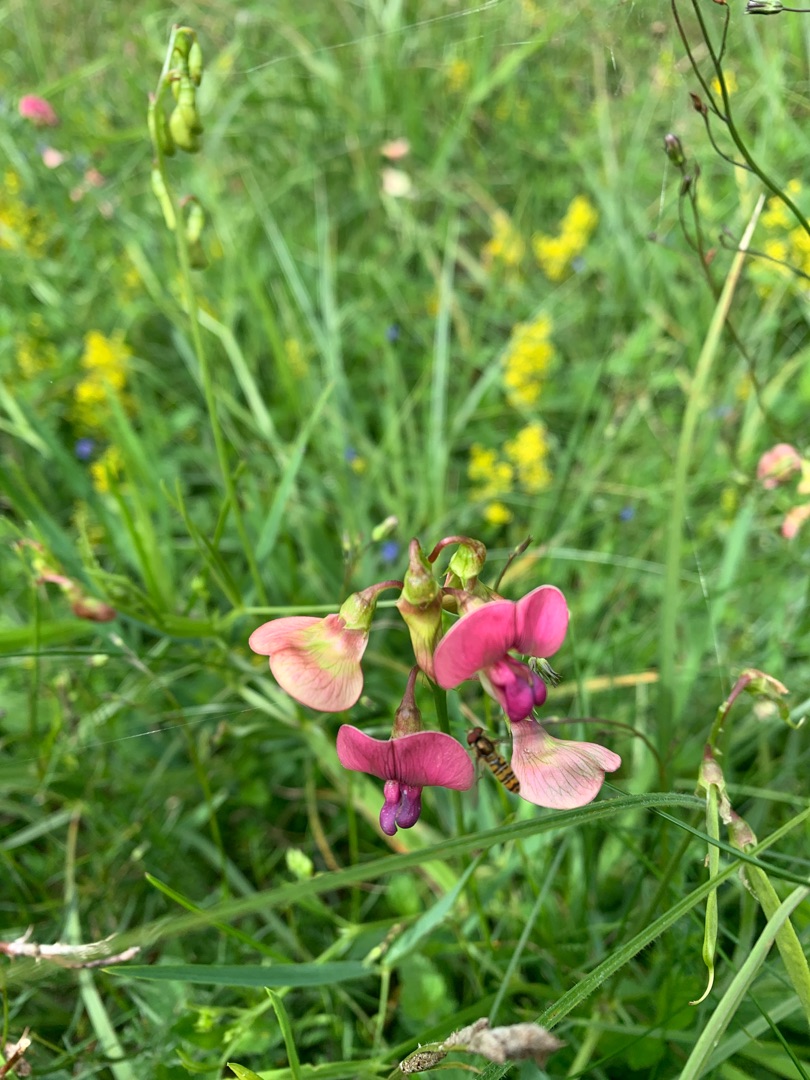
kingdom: Plantae
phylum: Tracheophyta
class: Magnoliopsida
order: Fabales
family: Fabaceae
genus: Lathyrus
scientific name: Lathyrus sylvestris
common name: Skov-fladbælg
